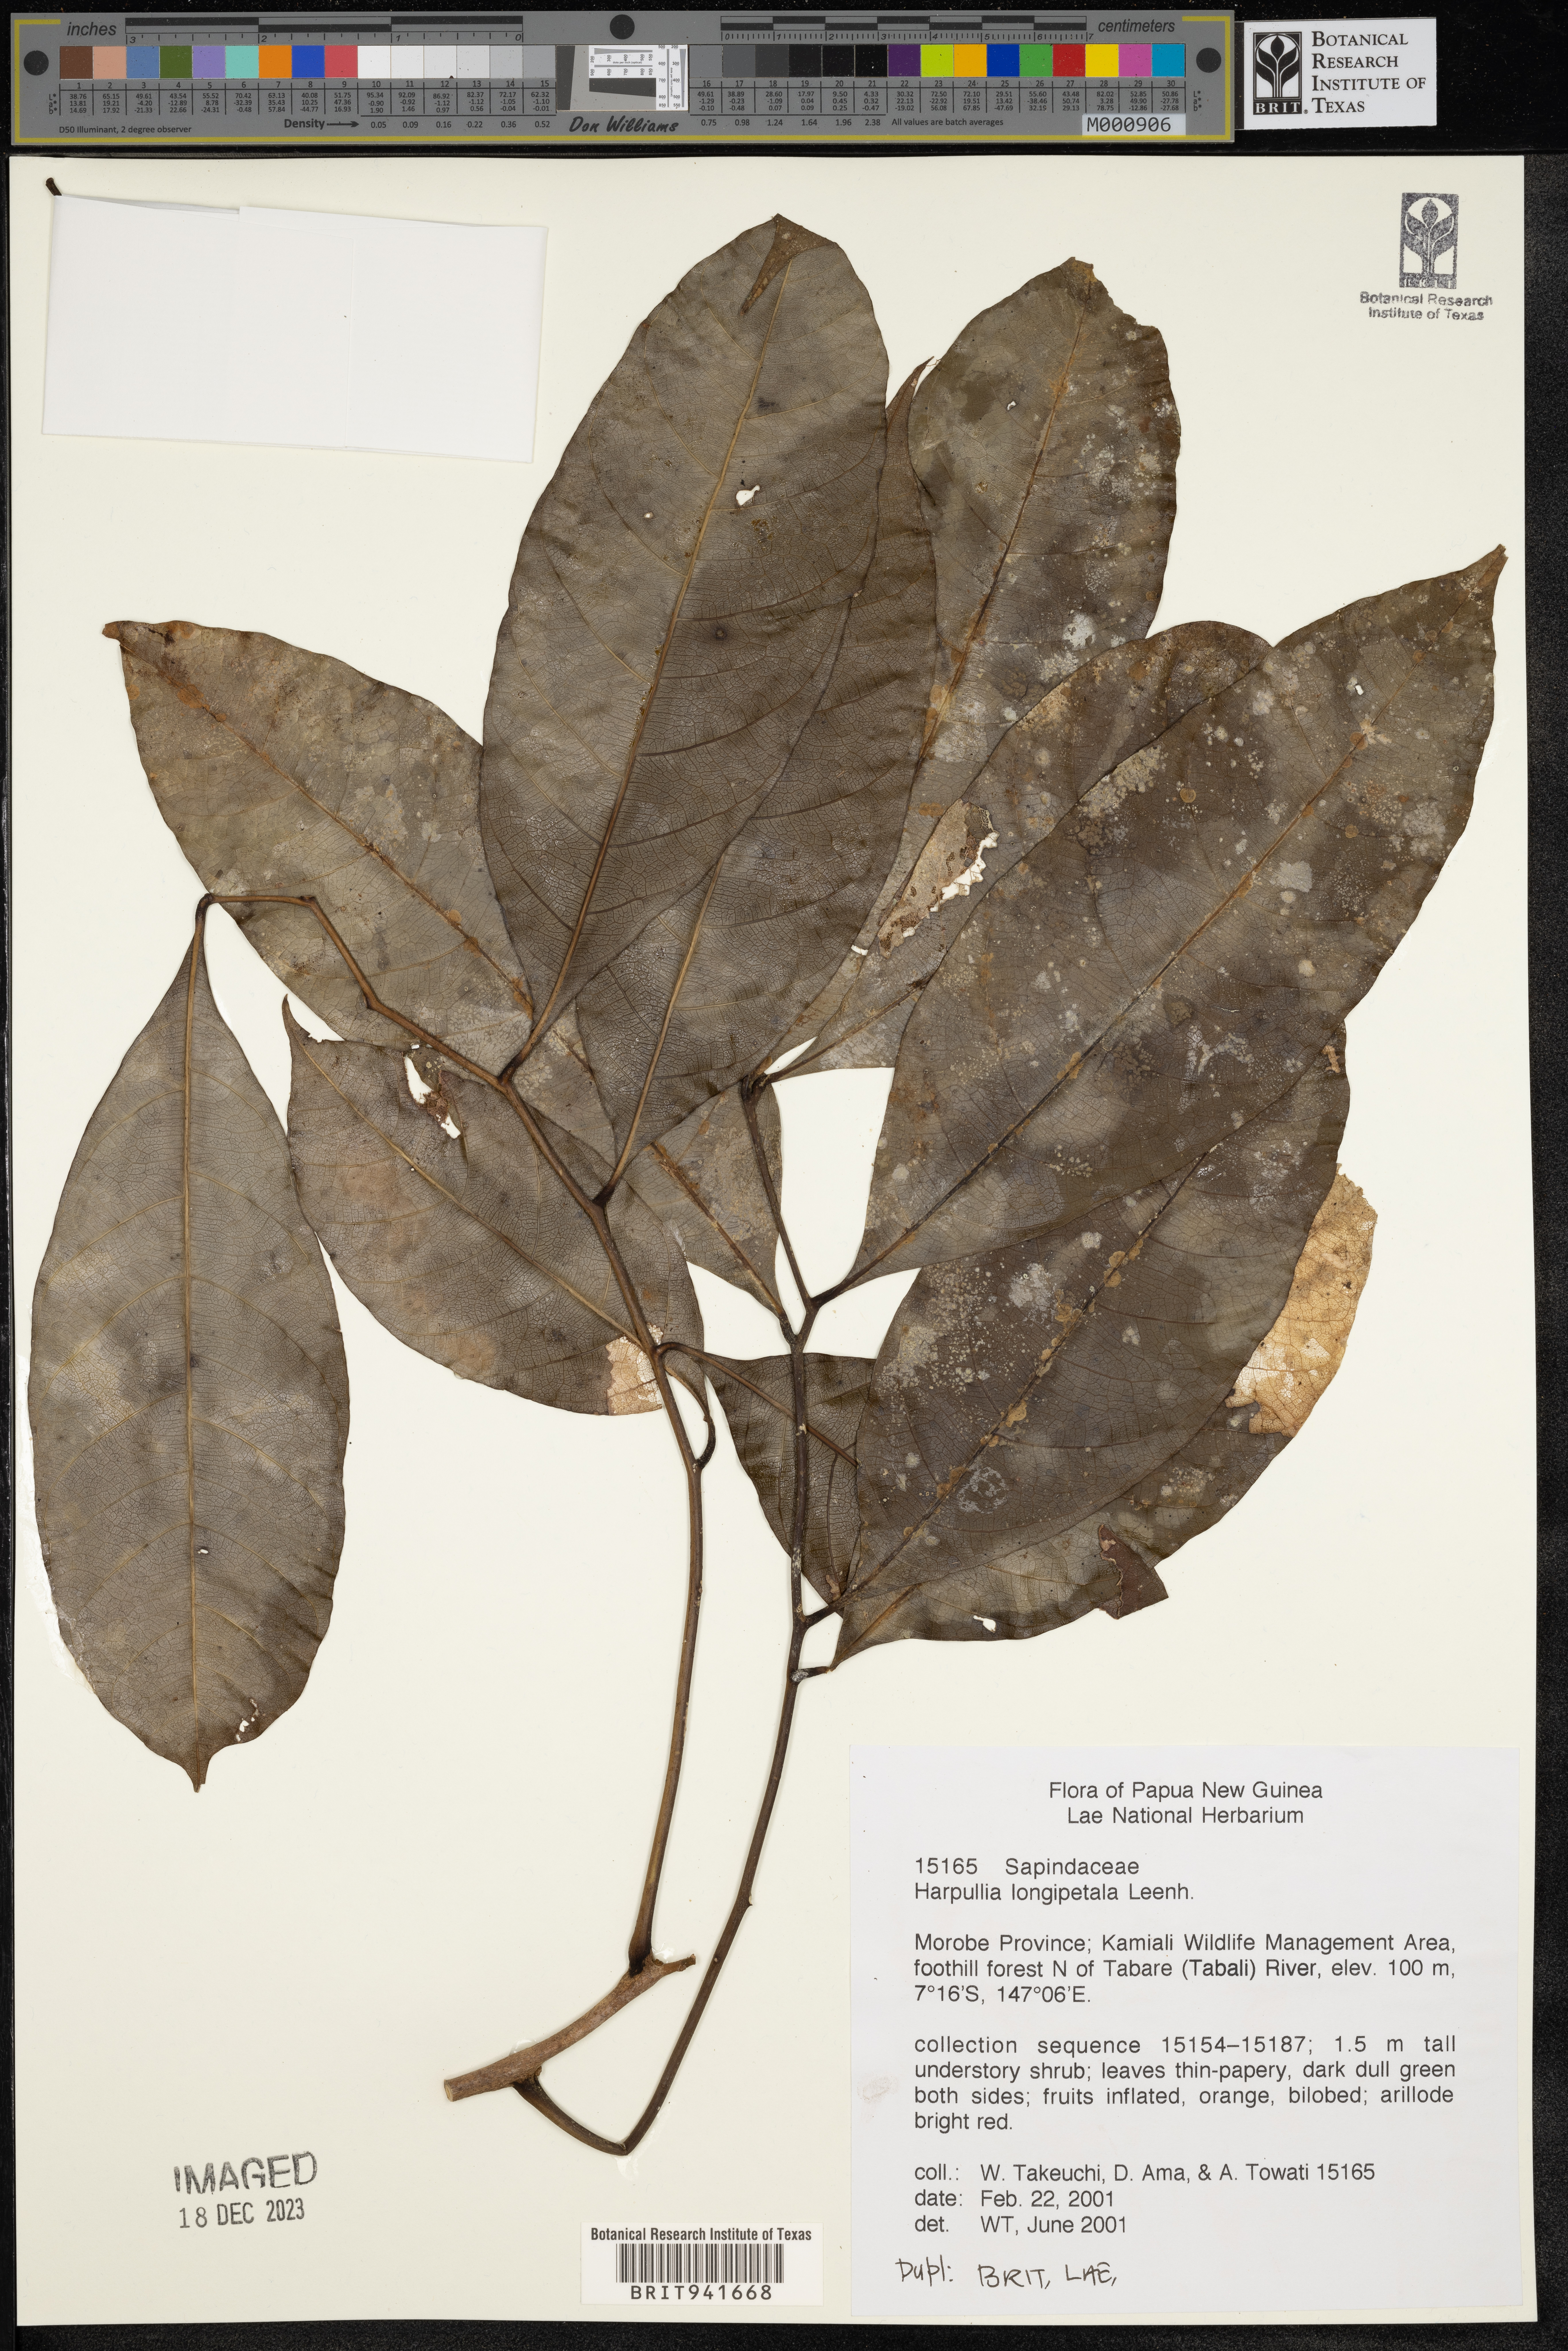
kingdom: Plantae
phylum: Tracheophyta
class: Magnoliopsida
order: Sapindales
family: Sapindaceae
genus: Harpullia
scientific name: Harpullia
